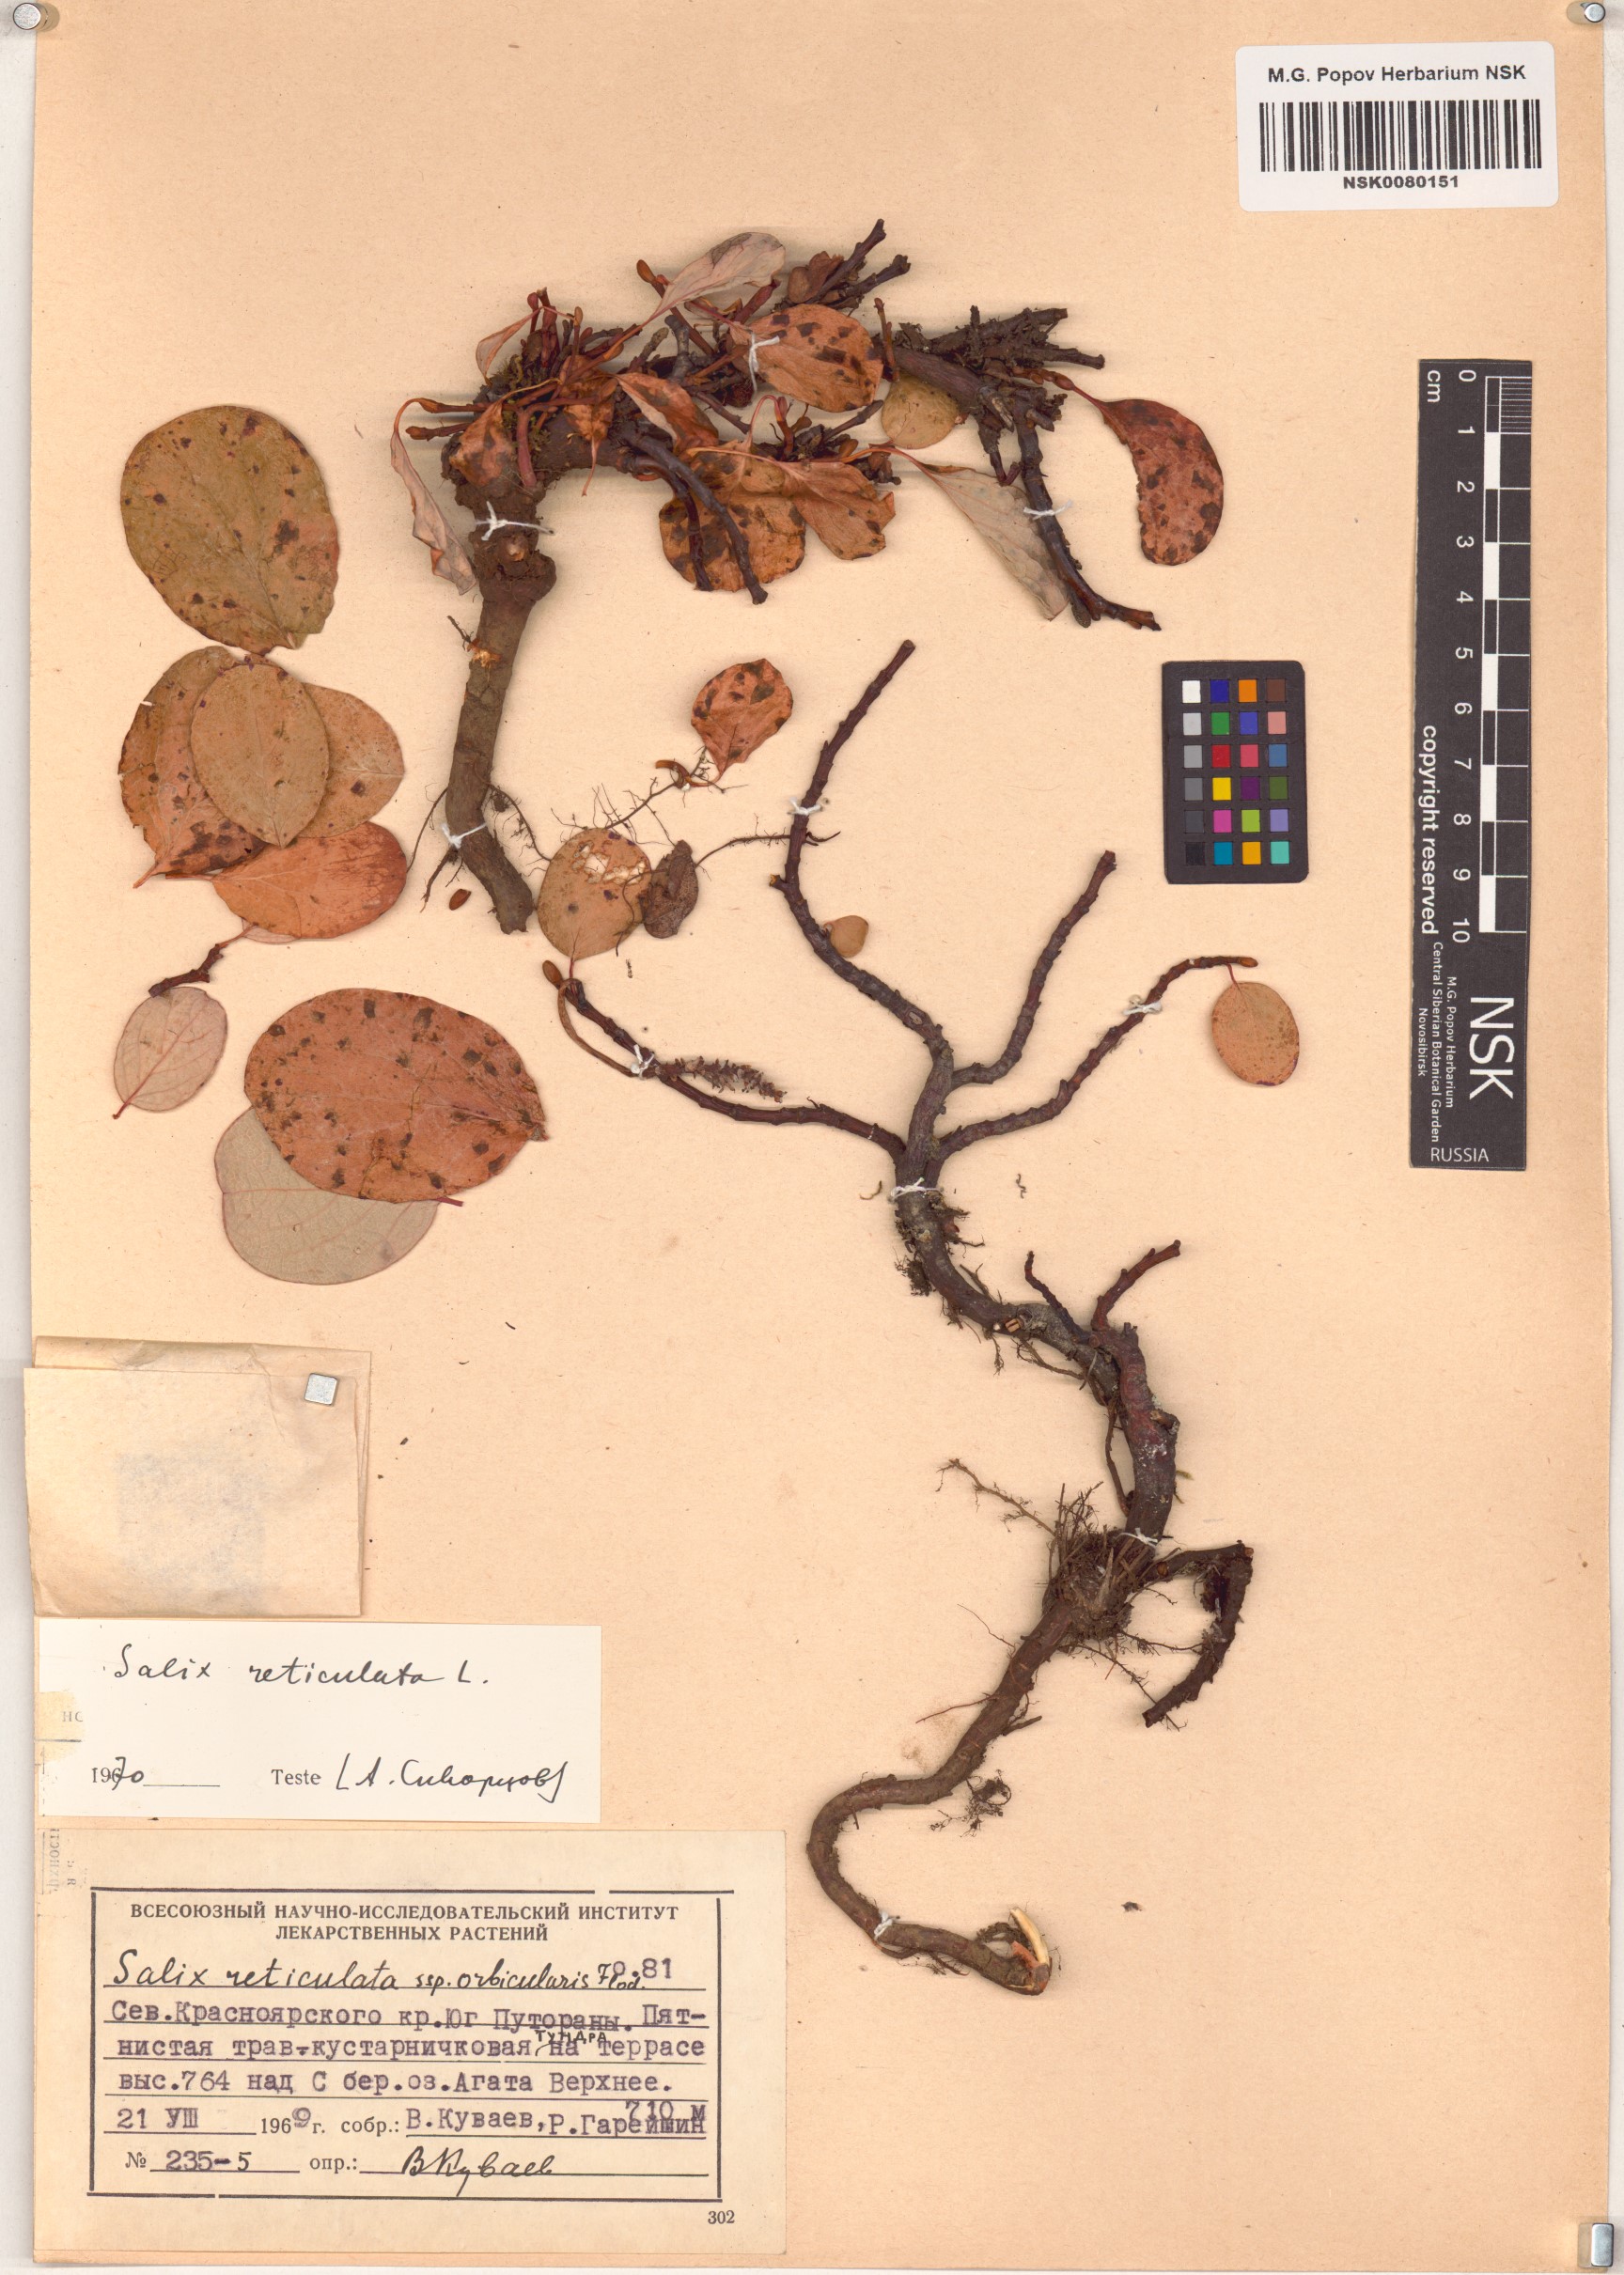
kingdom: Plantae
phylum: Tracheophyta
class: Magnoliopsida
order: Malpighiales
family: Salicaceae
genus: Salix
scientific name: Salix reticulata
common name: Net-leaved willow
